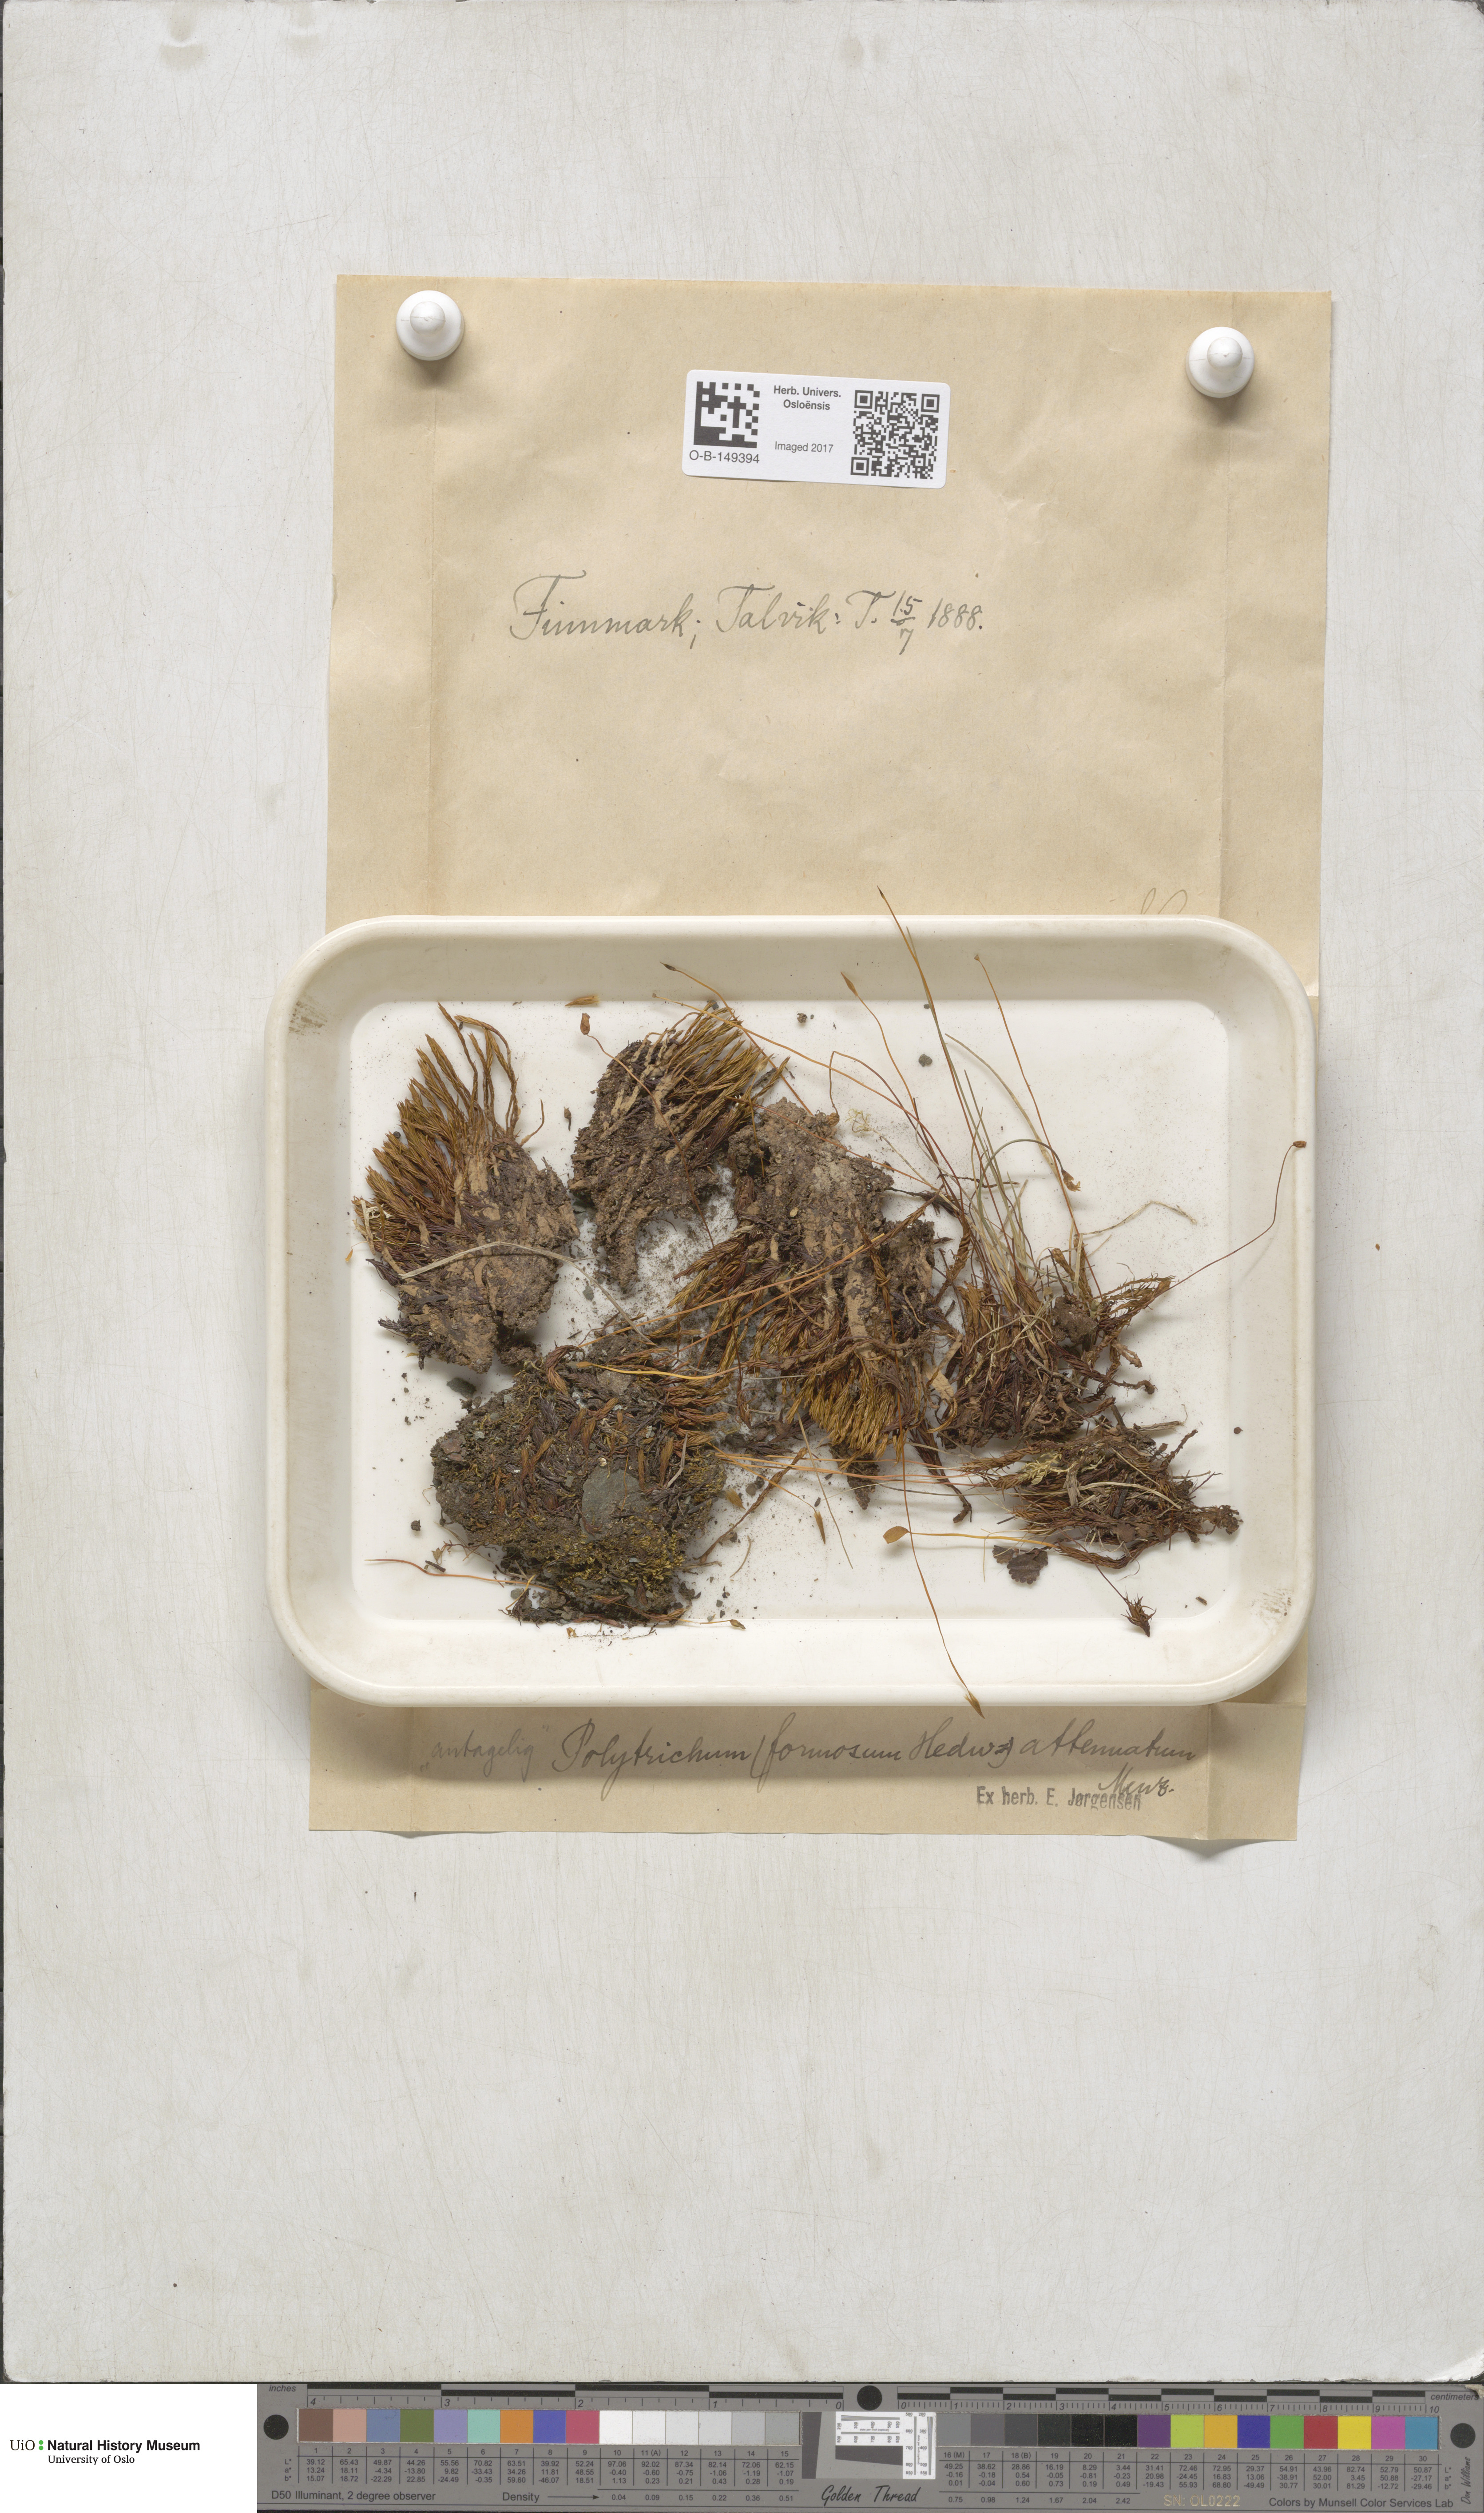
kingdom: Plantae
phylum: Bryophyta
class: Polytrichopsida
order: Polytrichales
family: Polytrichaceae
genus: Polytrichum
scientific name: Polytrichum formosum
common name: Bank haircap moss
